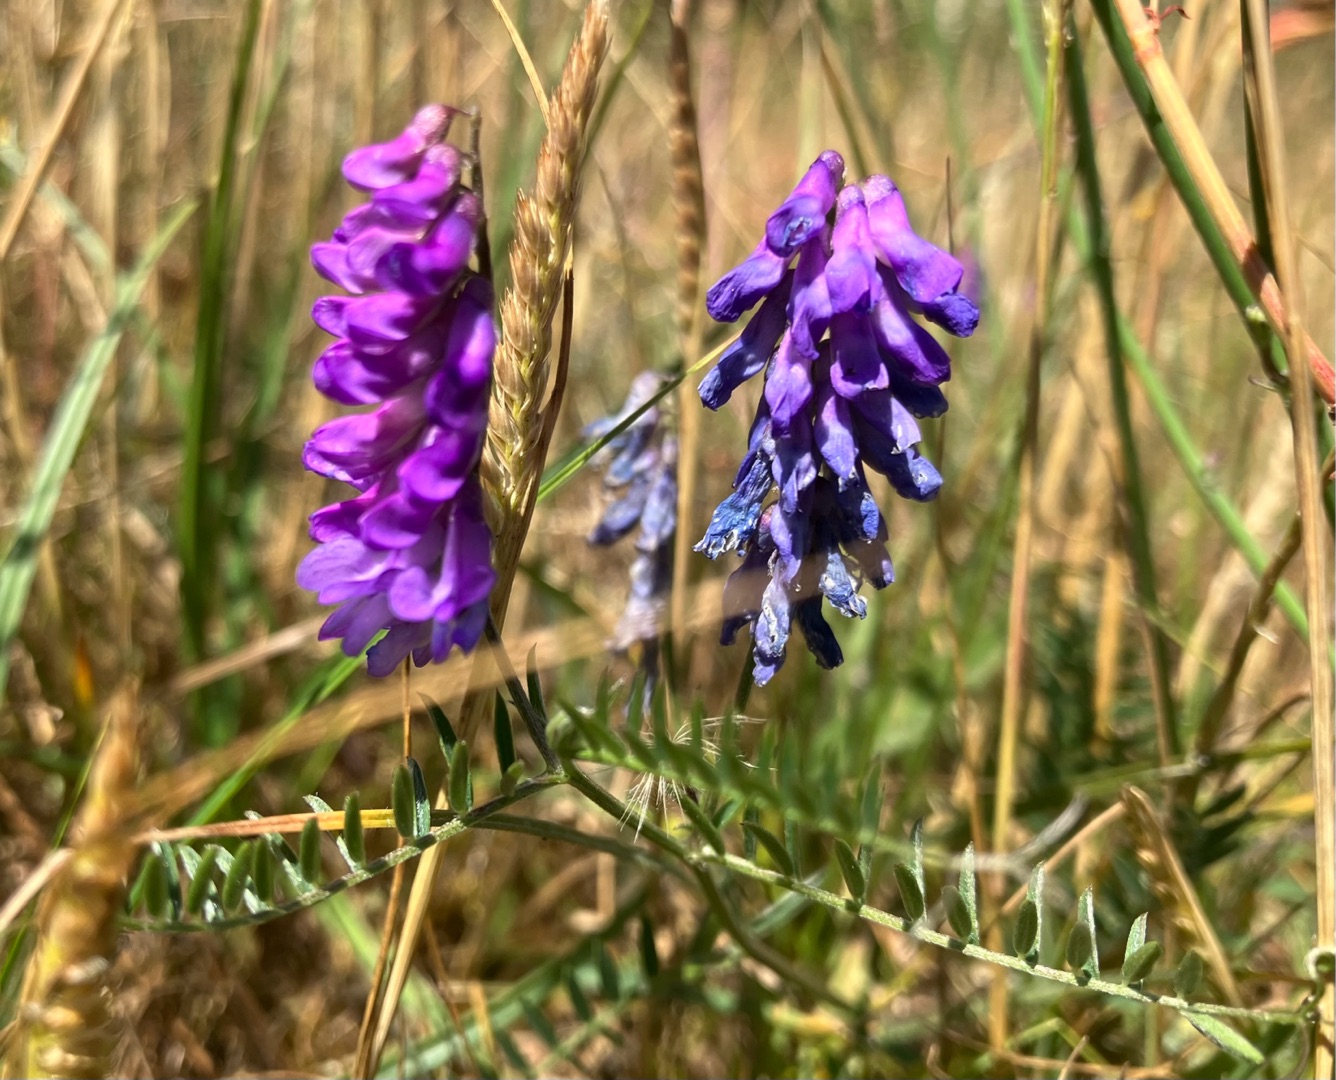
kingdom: Plantae
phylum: Tracheophyta
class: Magnoliopsida
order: Fabales
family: Fabaceae
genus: Vicia
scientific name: Vicia cracca
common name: Muse-vikke
